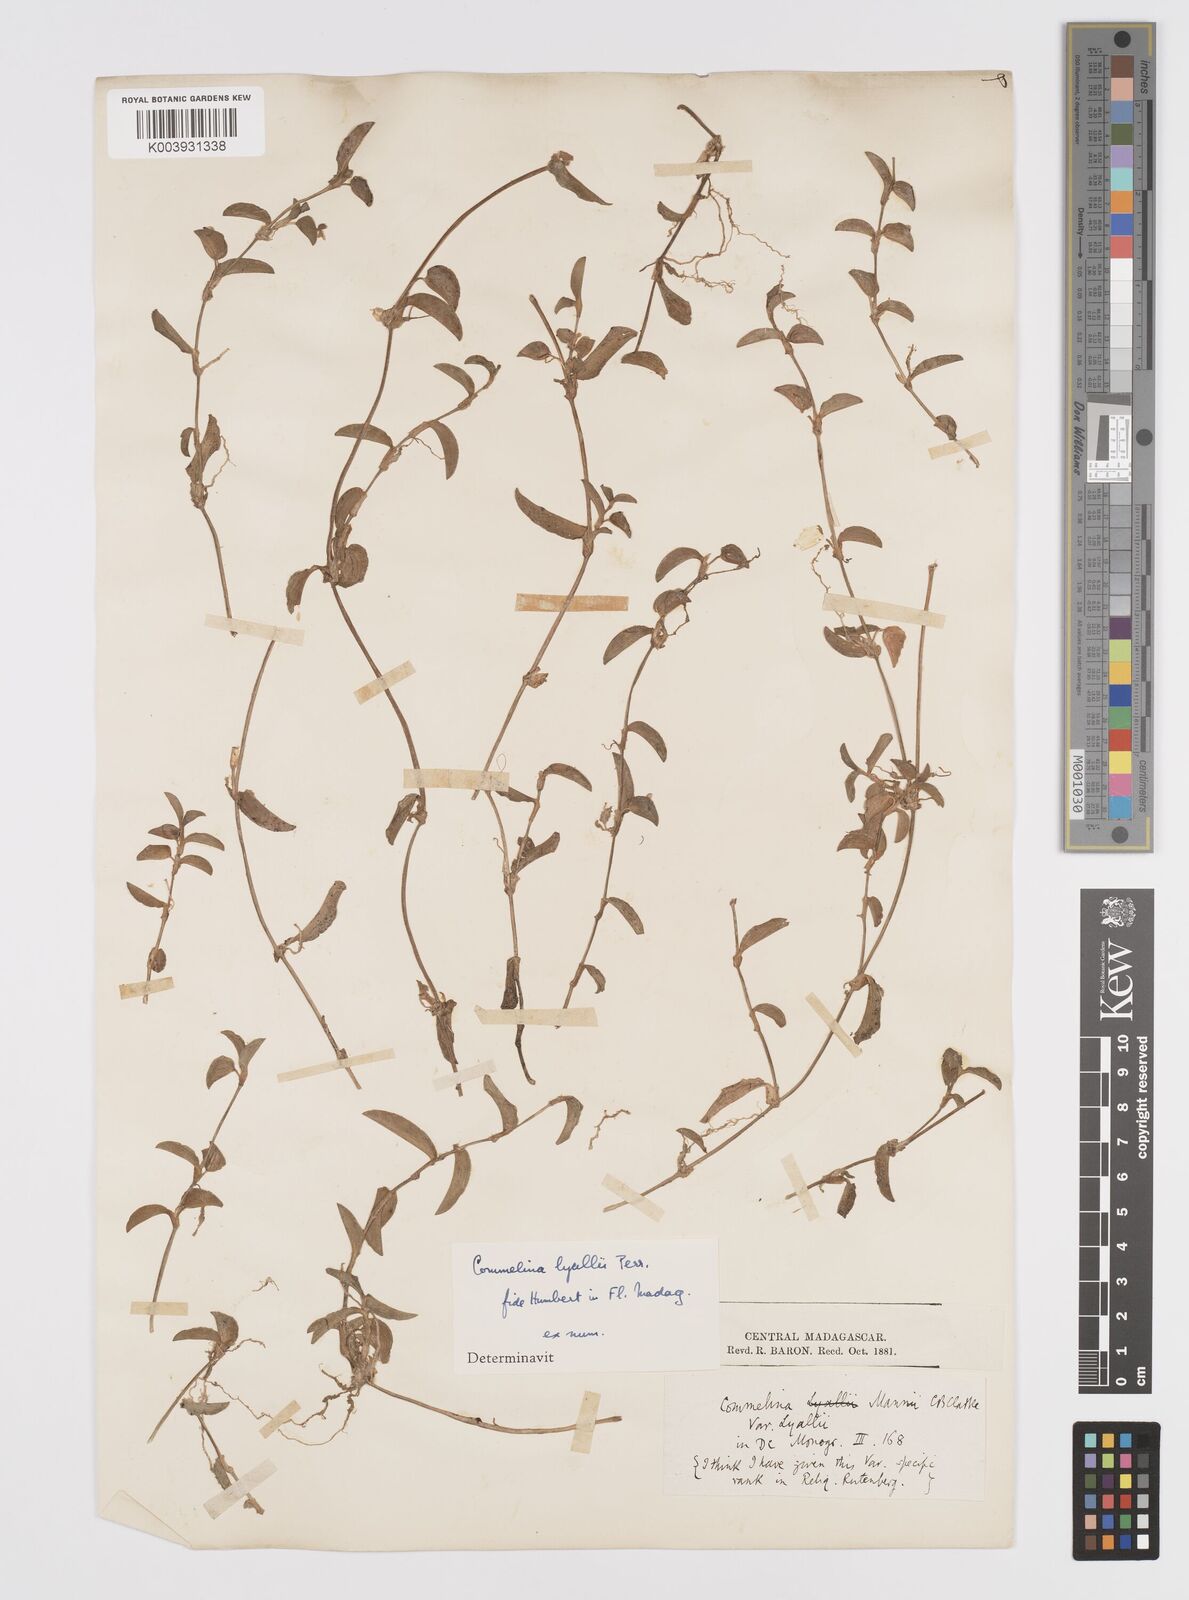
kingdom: Plantae
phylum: Tracheophyta
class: Liliopsida
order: Commelinales
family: Commelinaceae
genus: Commelina
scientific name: Commelina africana
